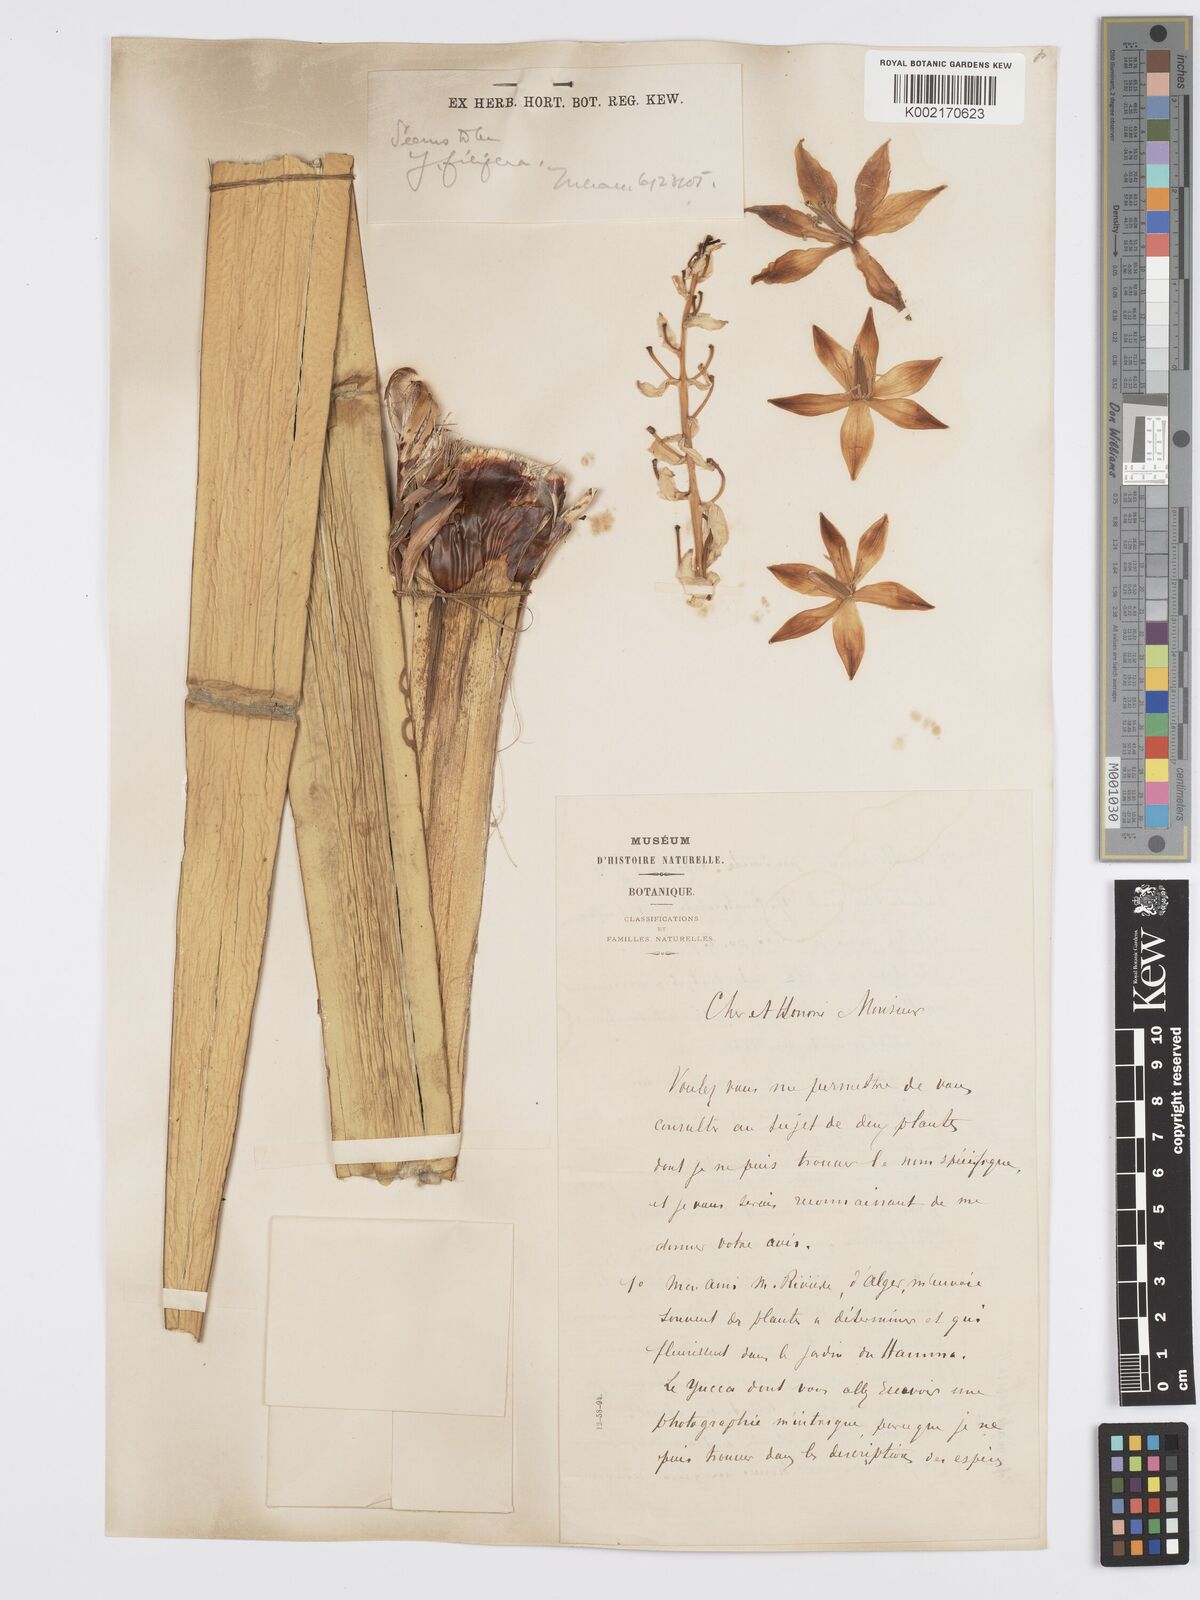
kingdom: Plantae
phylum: Tracheophyta
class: Liliopsida
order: Asparagales
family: Asparagaceae
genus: Yucca
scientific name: Yucca filifera
